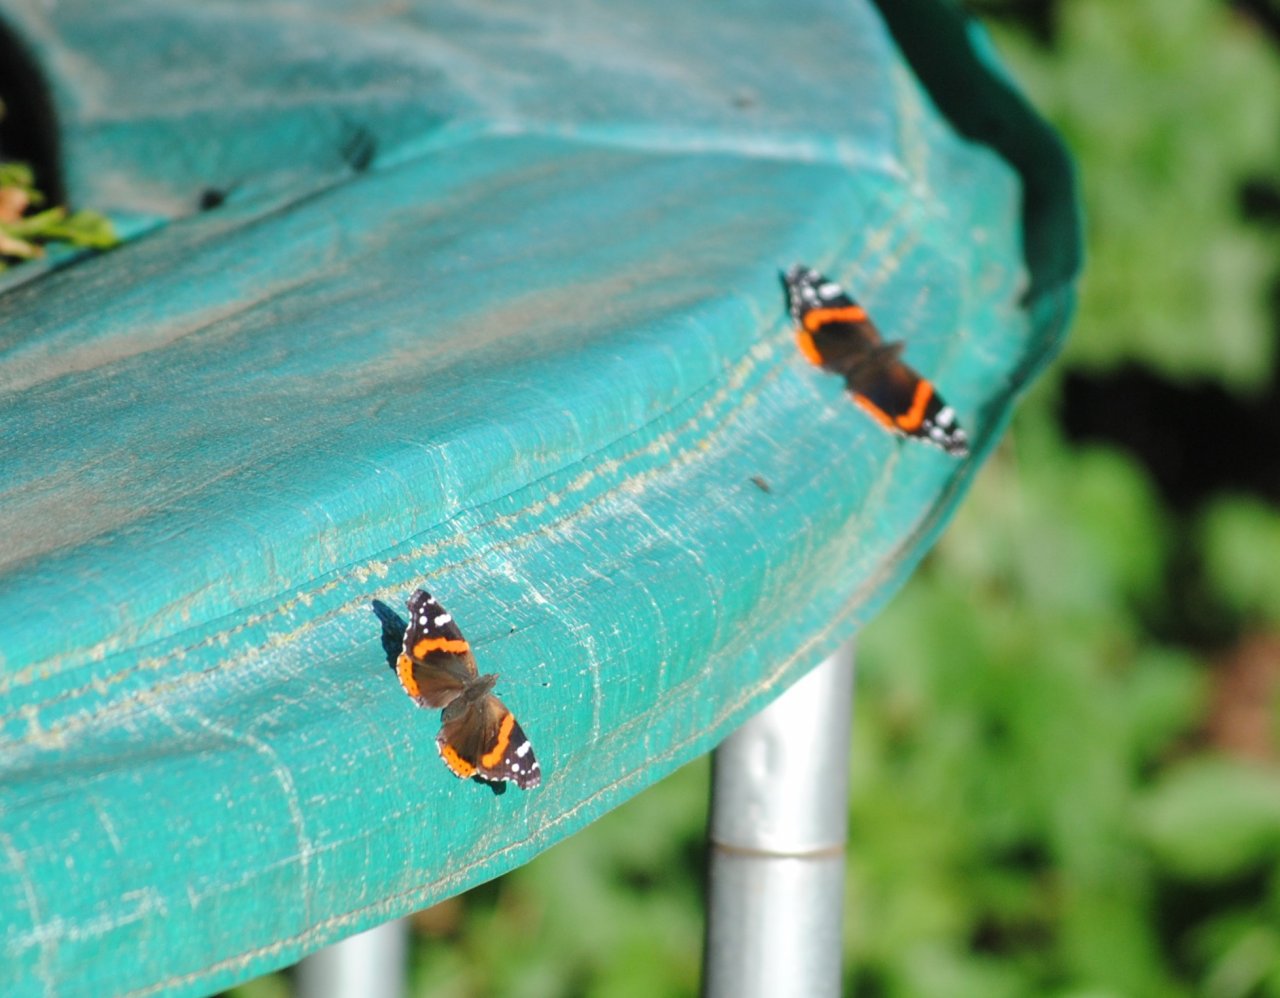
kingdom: Animalia
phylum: Arthropoda
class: Insecta
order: Lepidoptera
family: Nymphalidae
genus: Vanessa
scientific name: Vanessa atalanta
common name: Red Admiral
